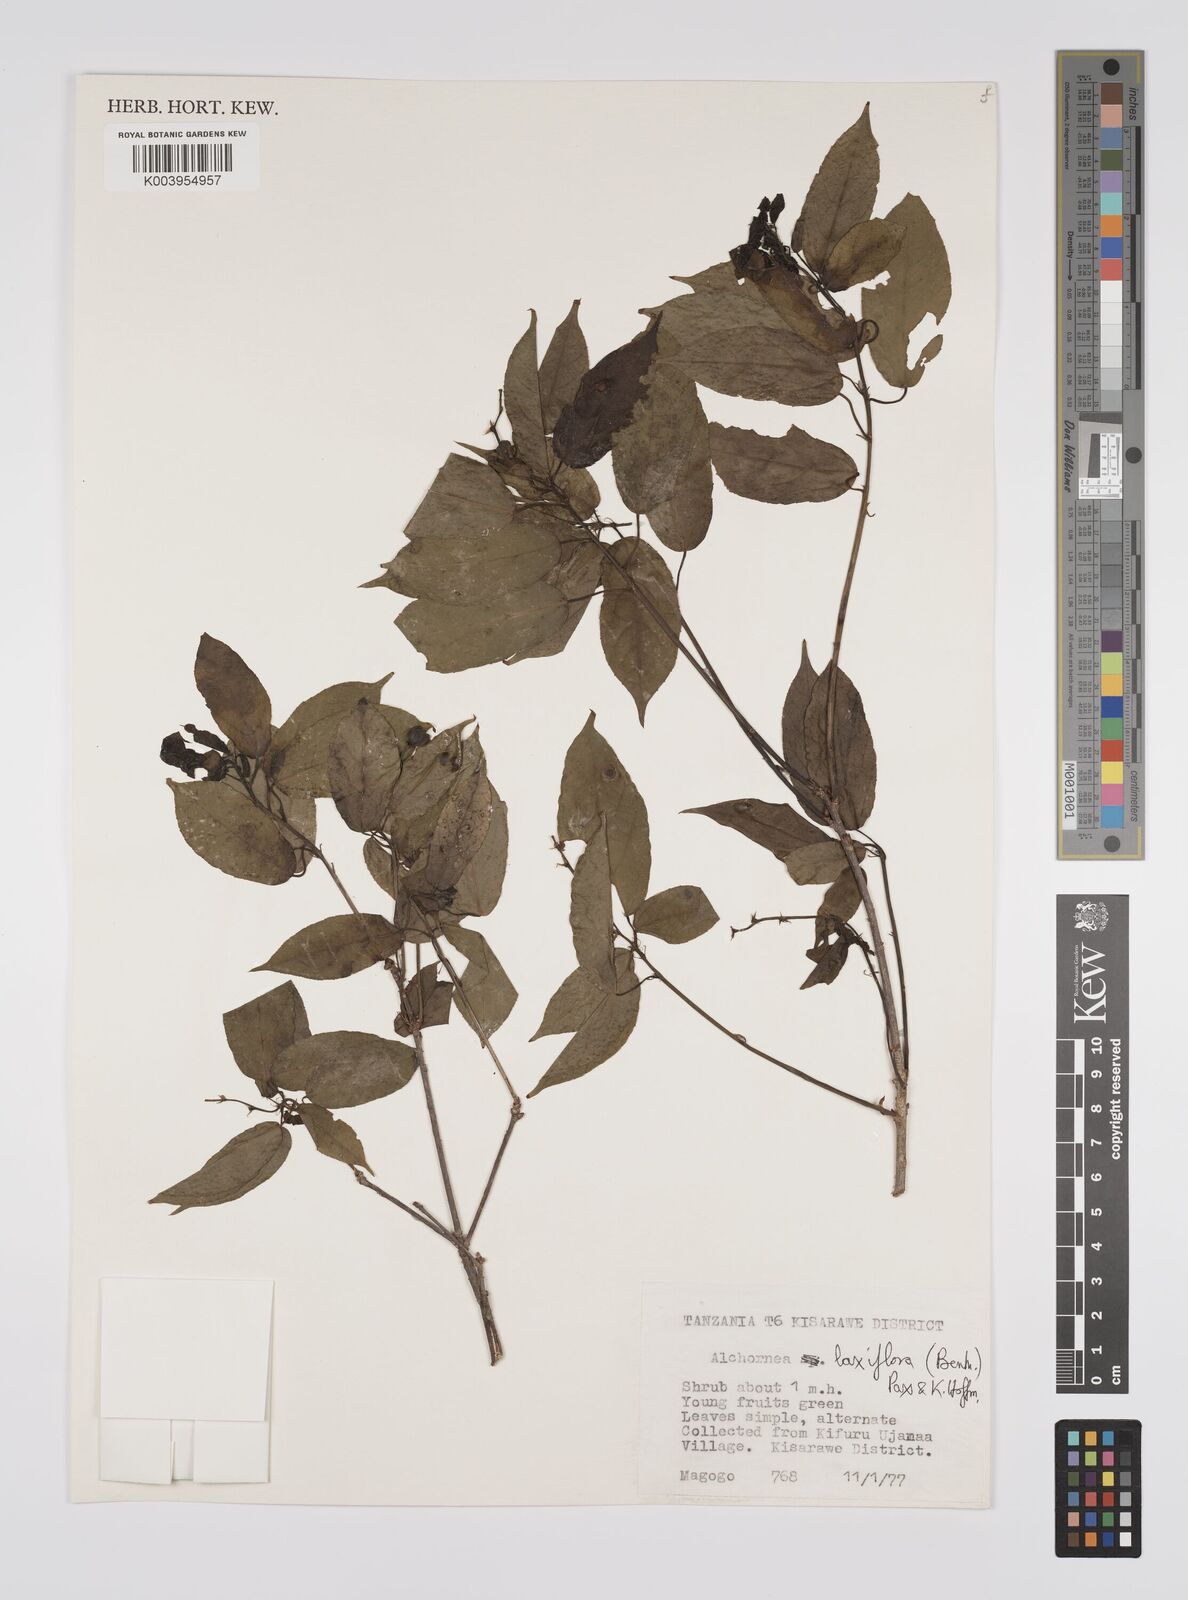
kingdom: Plantae
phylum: Tracheophyta
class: Magnoliopsida
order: Malpighiales
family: Euphorbiaceae
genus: Alchornea
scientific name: Alchornea laxiflora
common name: Lowveld bead-string
